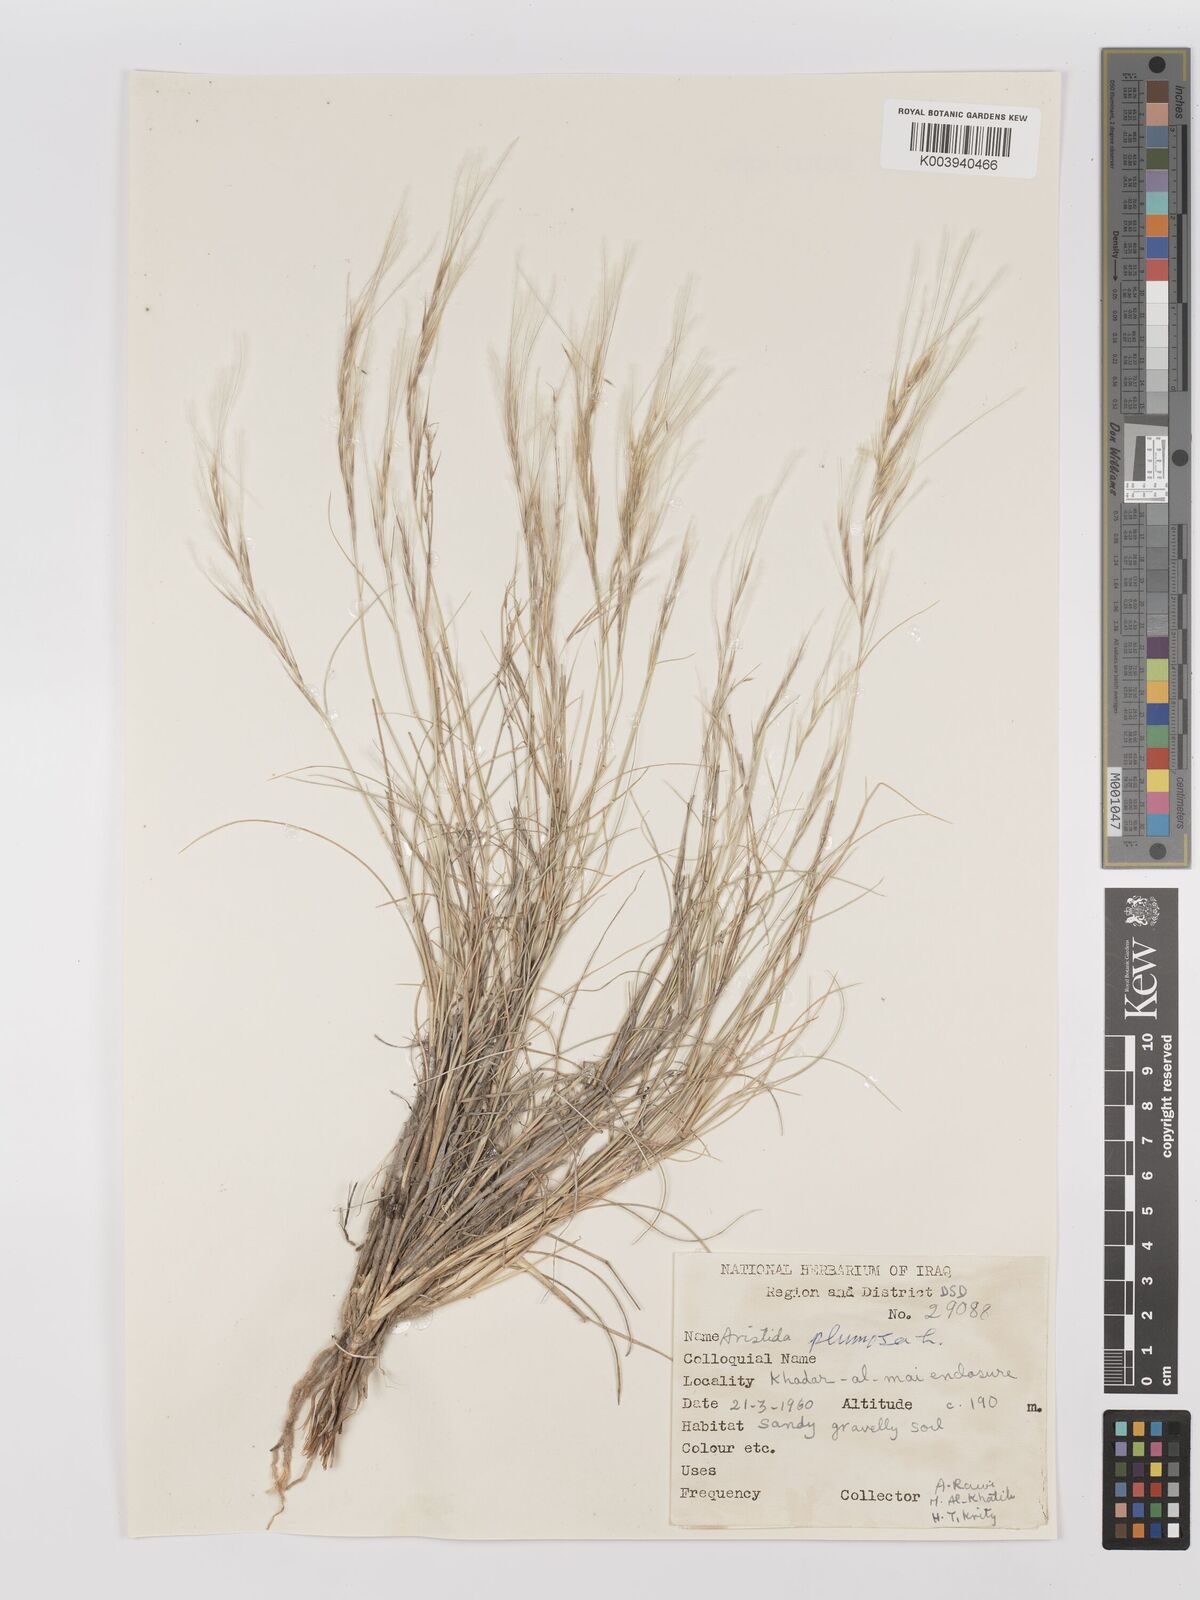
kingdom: Plantae
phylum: Tracheophyta
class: Liliopsida
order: Poales
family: Poaceae
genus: Stipagrostis
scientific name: Stipagrostis plumosa
